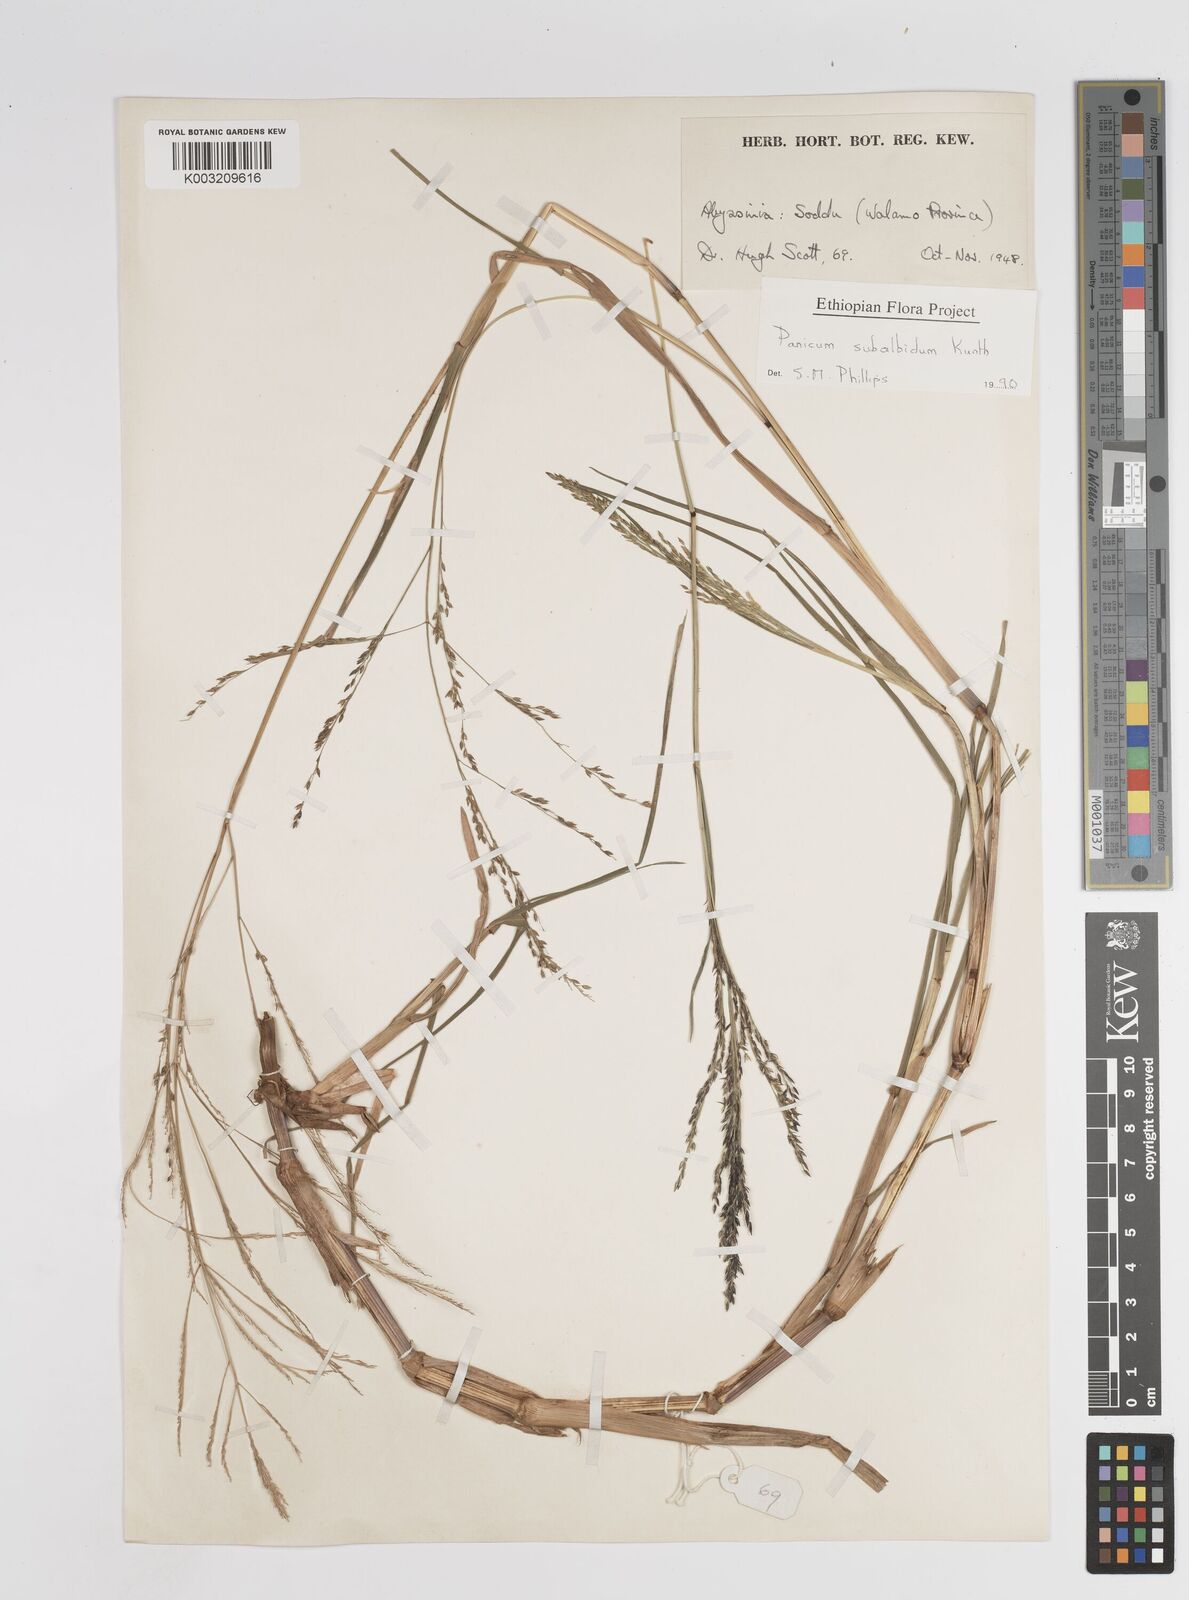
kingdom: Plantae
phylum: Tracheophyta
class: Liliopsida
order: Poales
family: Poaceae
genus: Panicum
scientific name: Panicum subalbidum
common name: Elbow buffalo grass
